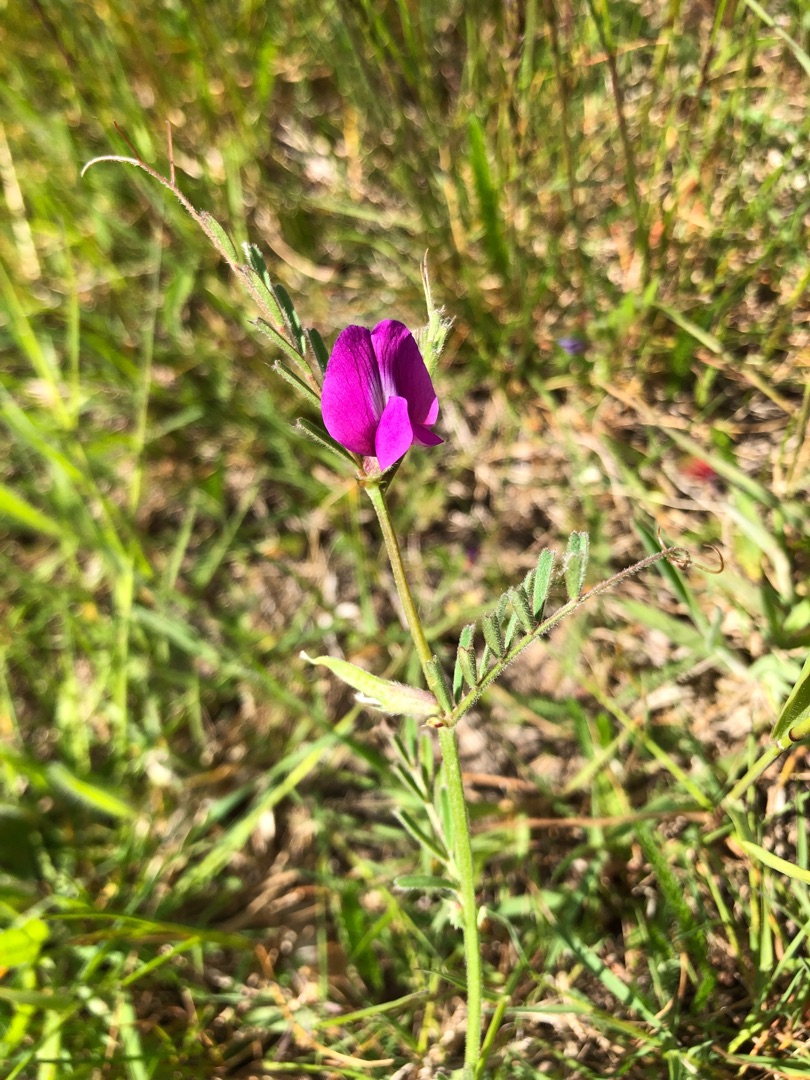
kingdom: Plantae
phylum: Tracheophyta
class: Magnoliopsida
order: Fabales
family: Fabaceae
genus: Vicia
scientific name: Vicia sativa
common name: Smalbladet vikke
